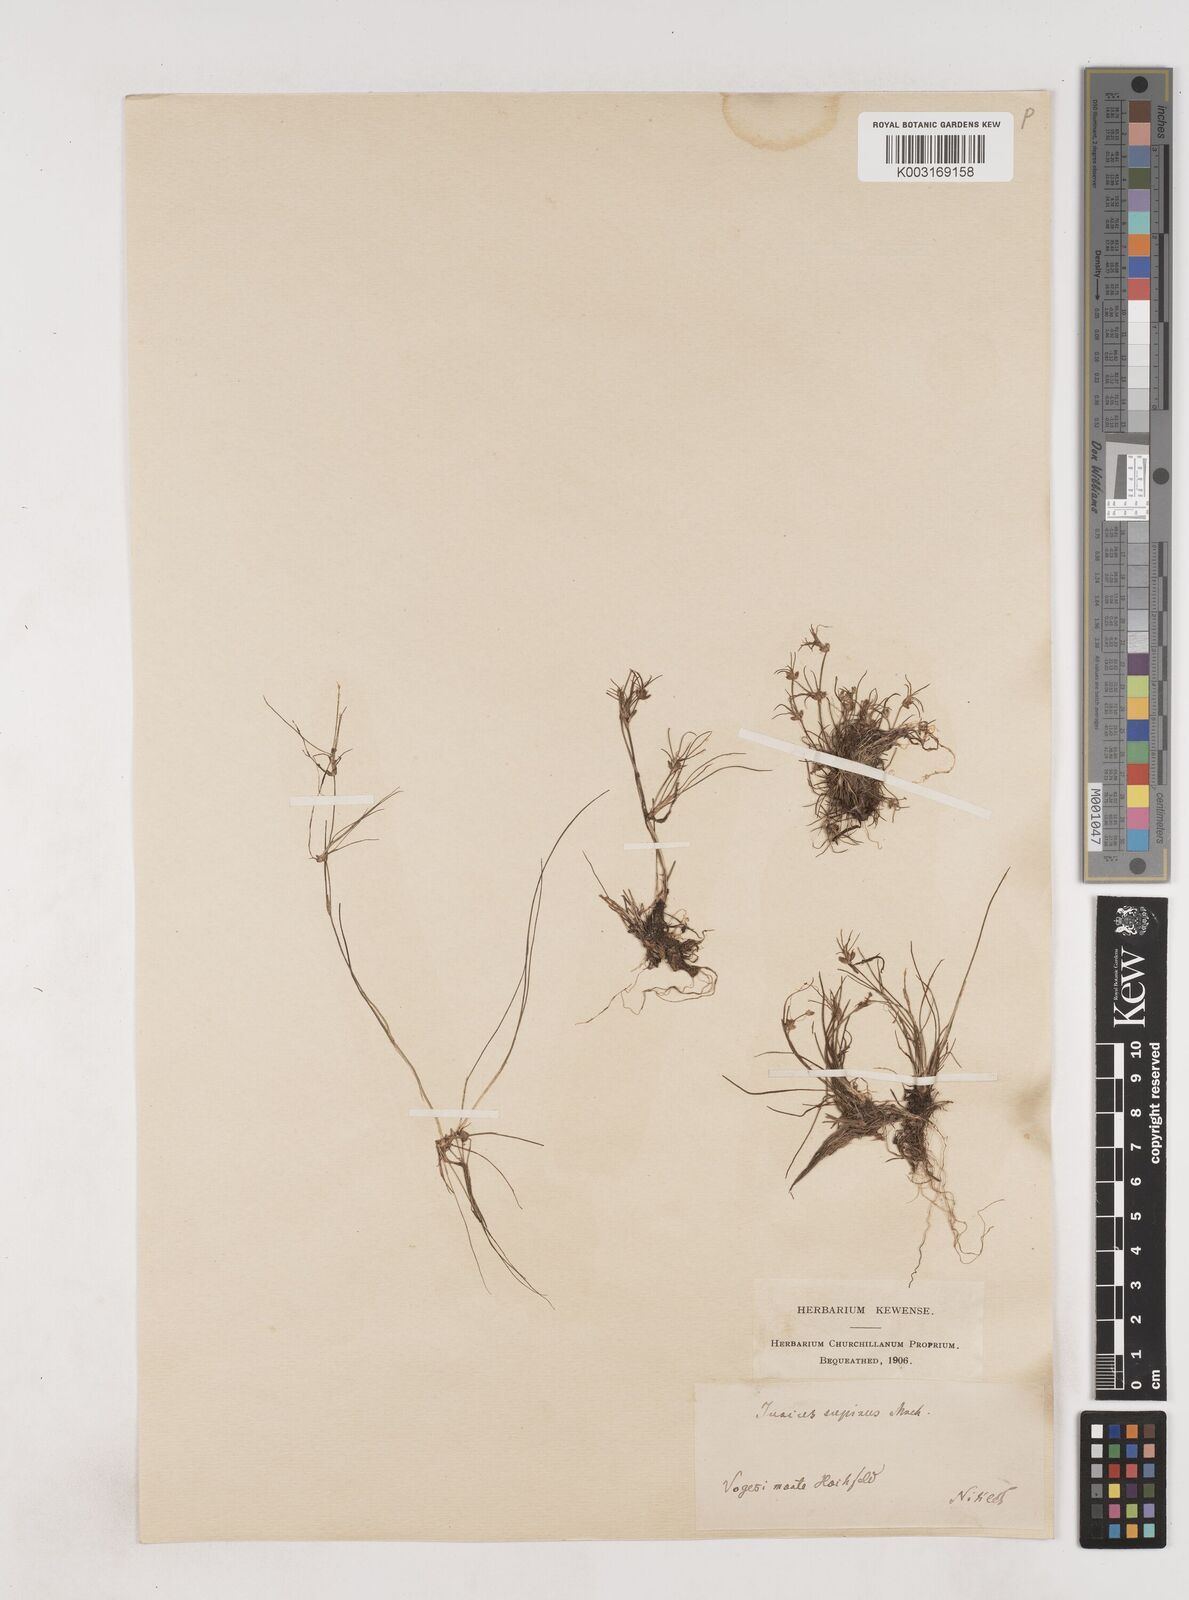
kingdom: Plantae
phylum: Tracheophyta
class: Liliopsida
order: Poales
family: Juncaceae
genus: Juncus
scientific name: Juncus bulbosus
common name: Bulbous rush
